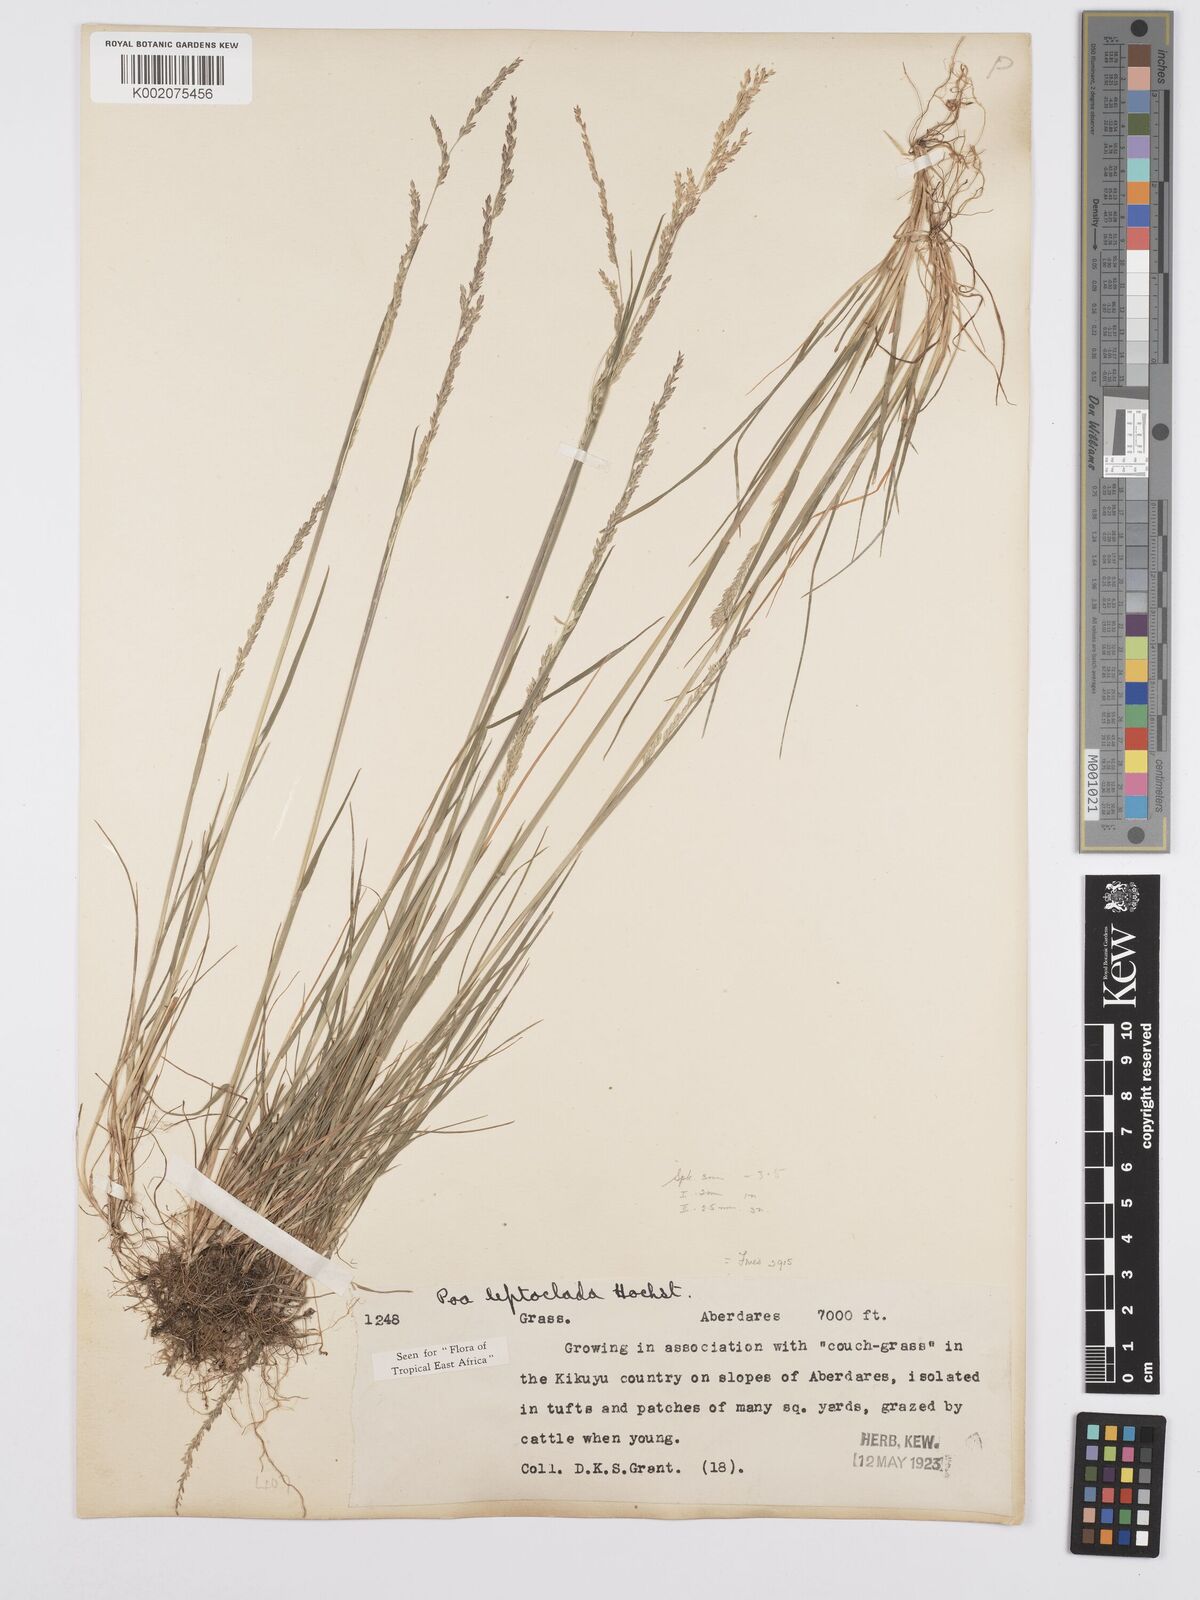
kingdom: Plantae
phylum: Tracheophyta
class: Liliopsida
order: Poales
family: Poaceae
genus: Poa
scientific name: Poa leptoclada
